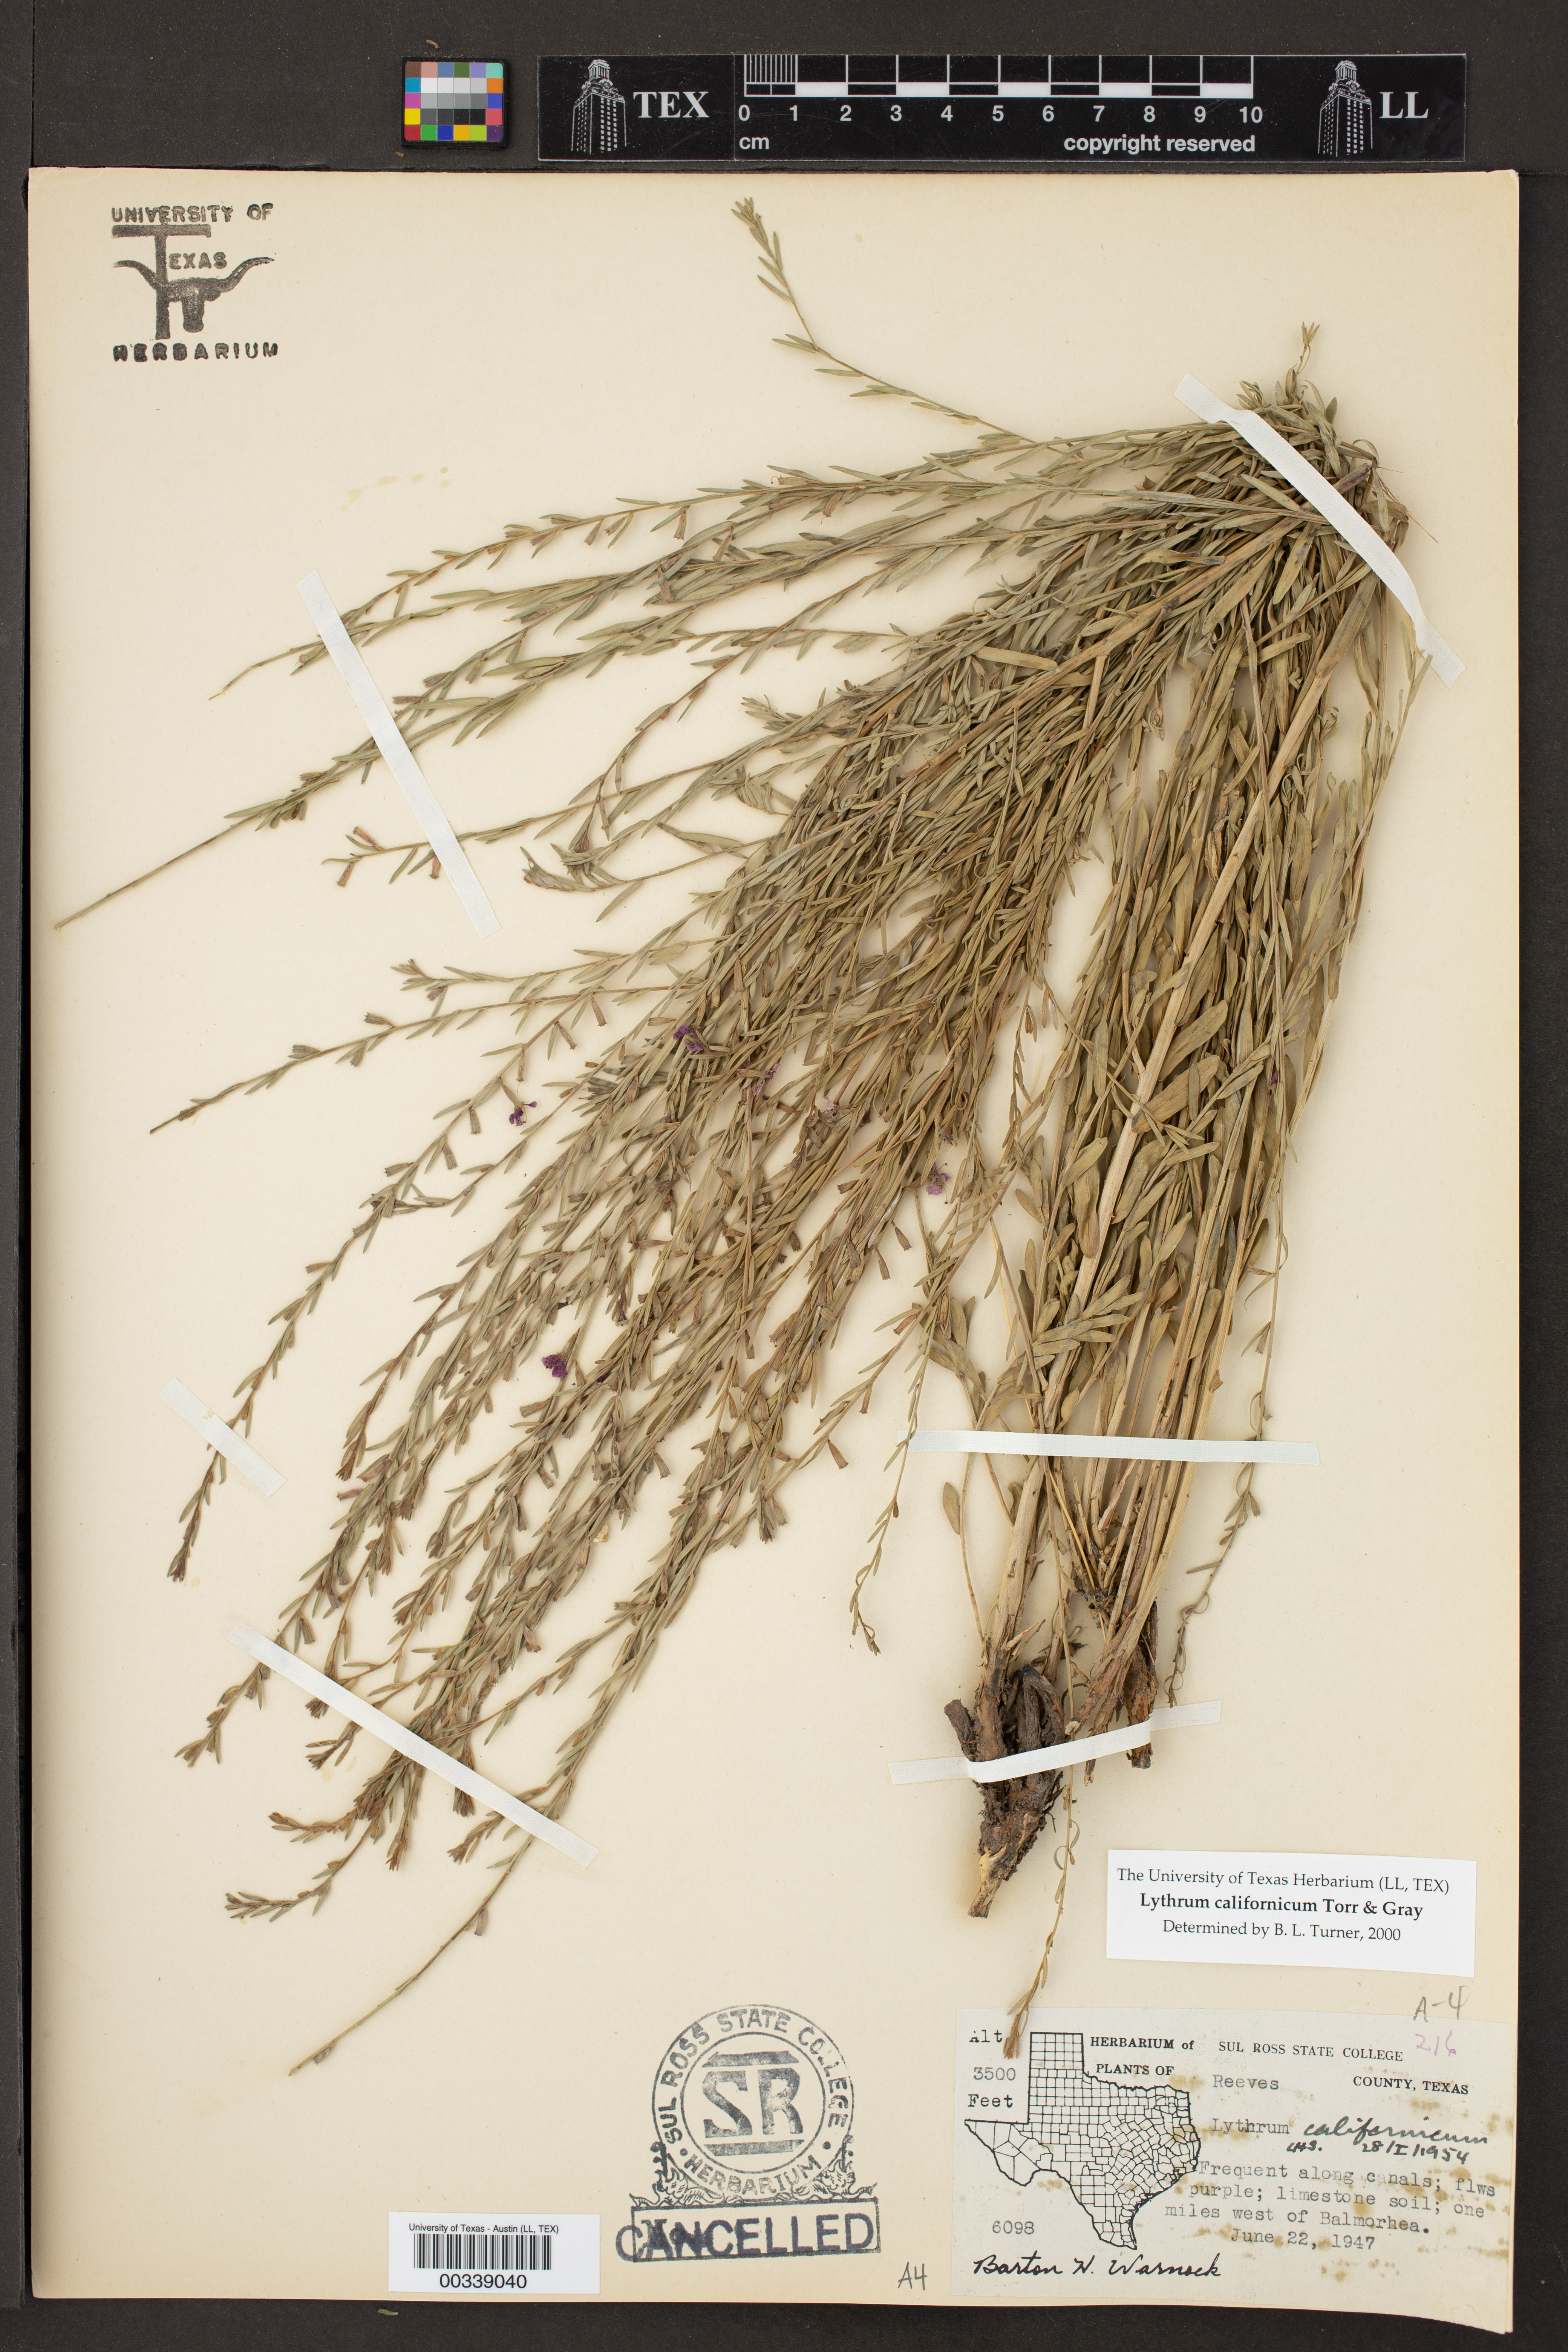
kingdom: Plantae
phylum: Tracheophyta
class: Magnoliopsida
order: Myrtales
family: Lythraceae
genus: Lythrum
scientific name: Lythrum californicum
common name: California loosestrife
